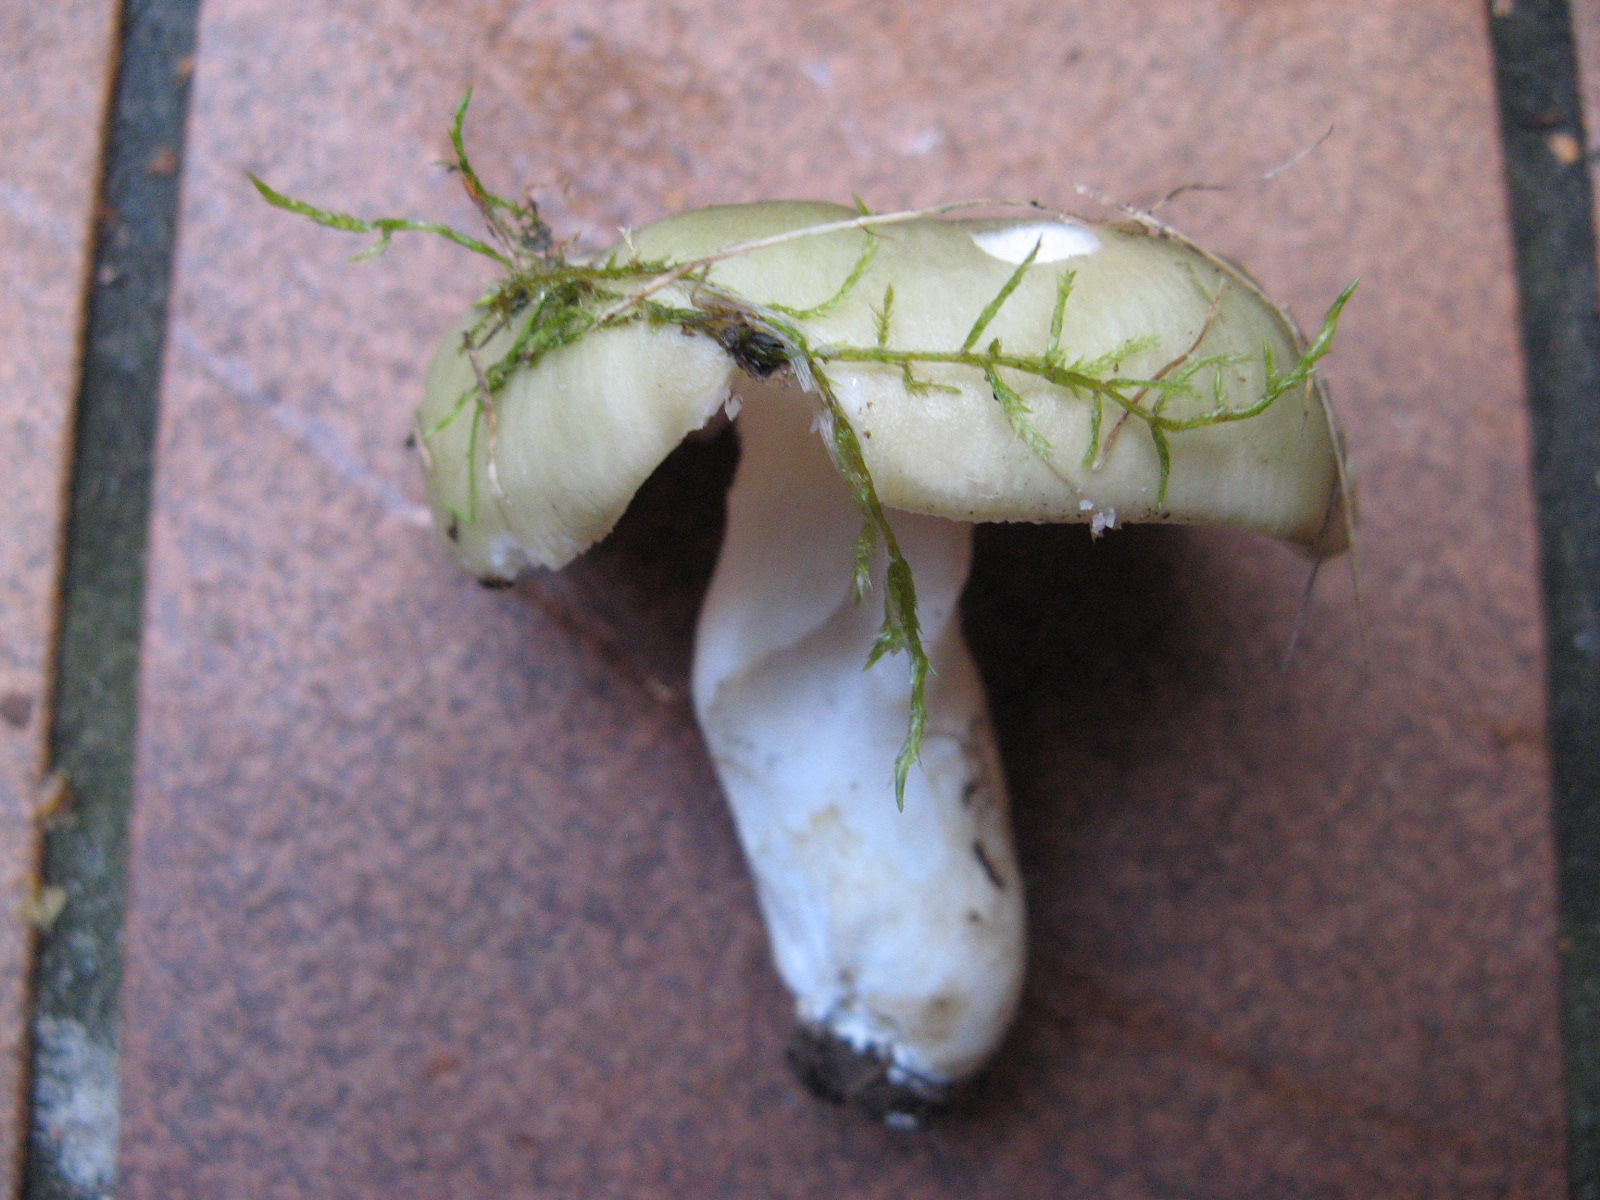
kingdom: Fungi
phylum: Basidiomycota
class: Agaricomycetes
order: Russulales
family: Russulaceae
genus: Russula
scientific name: Russula aeruginea
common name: græsgrøn skørhat
